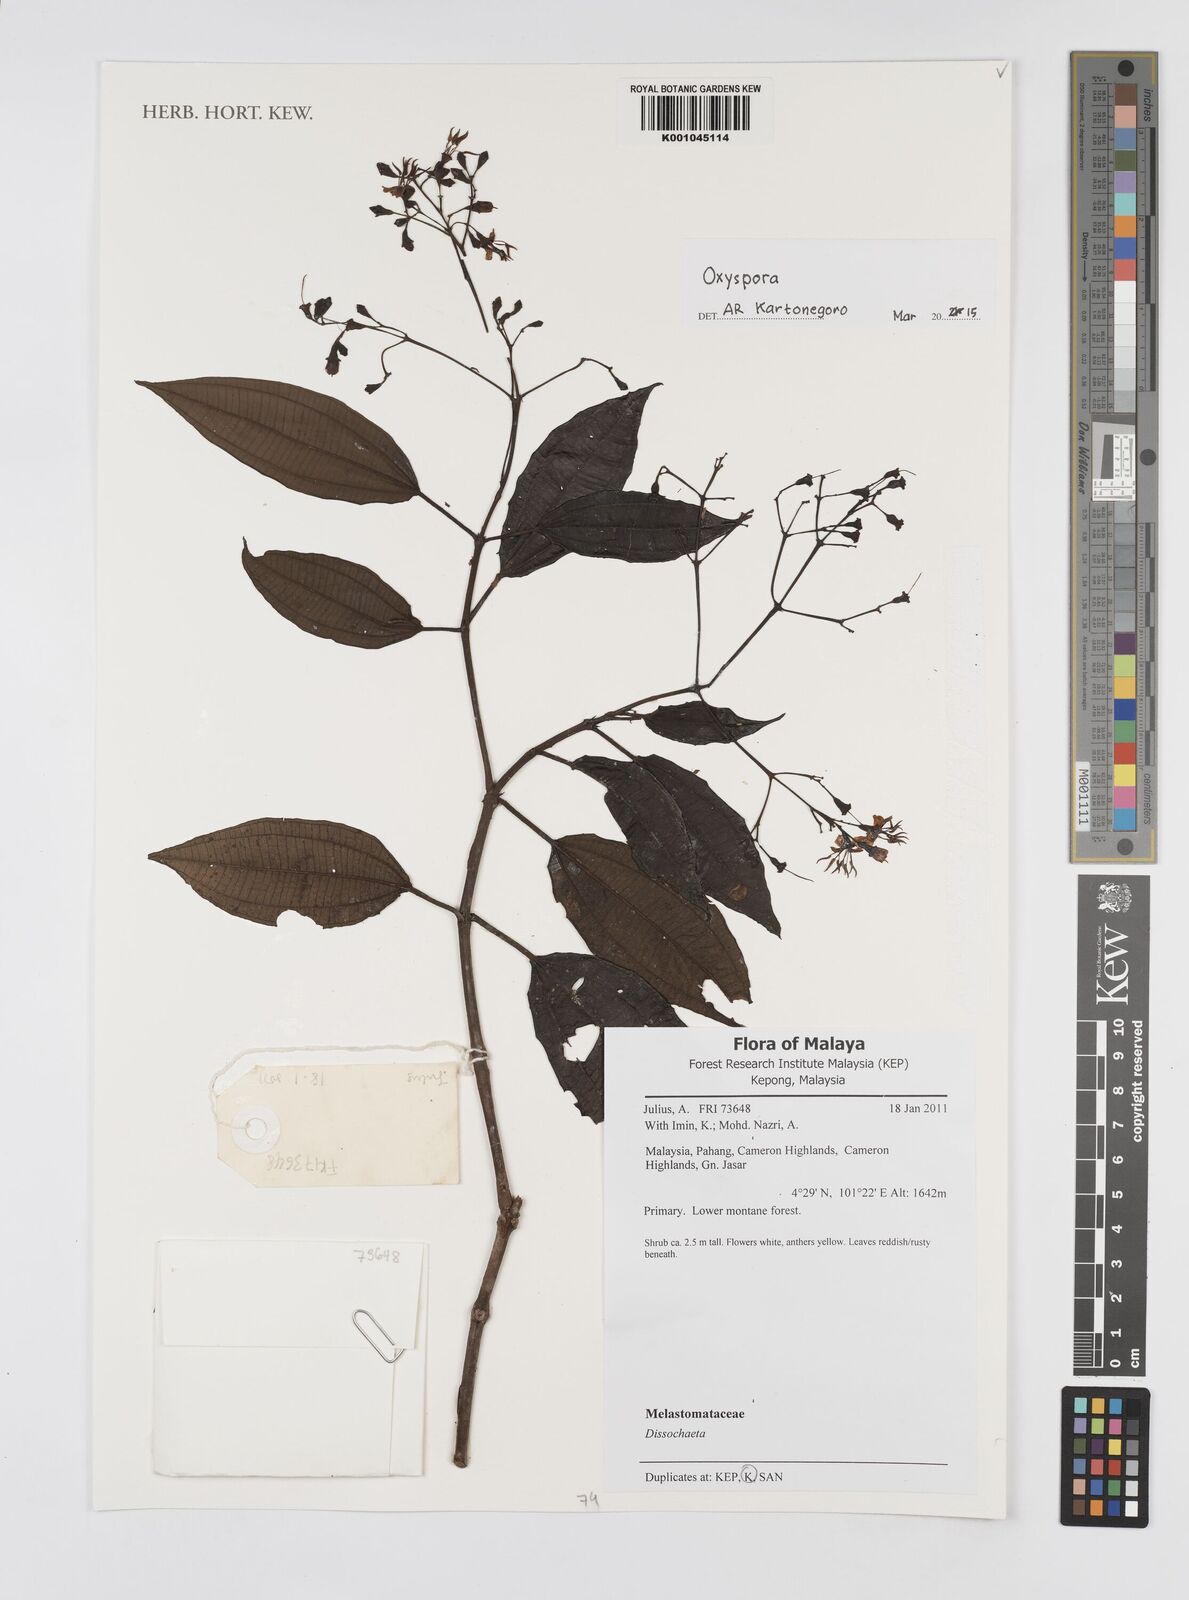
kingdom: Plantae
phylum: Tracheophyta
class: Magnoliopsida
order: Myrtales
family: Melastomataceae
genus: Oxyspora
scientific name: Oxyspora
